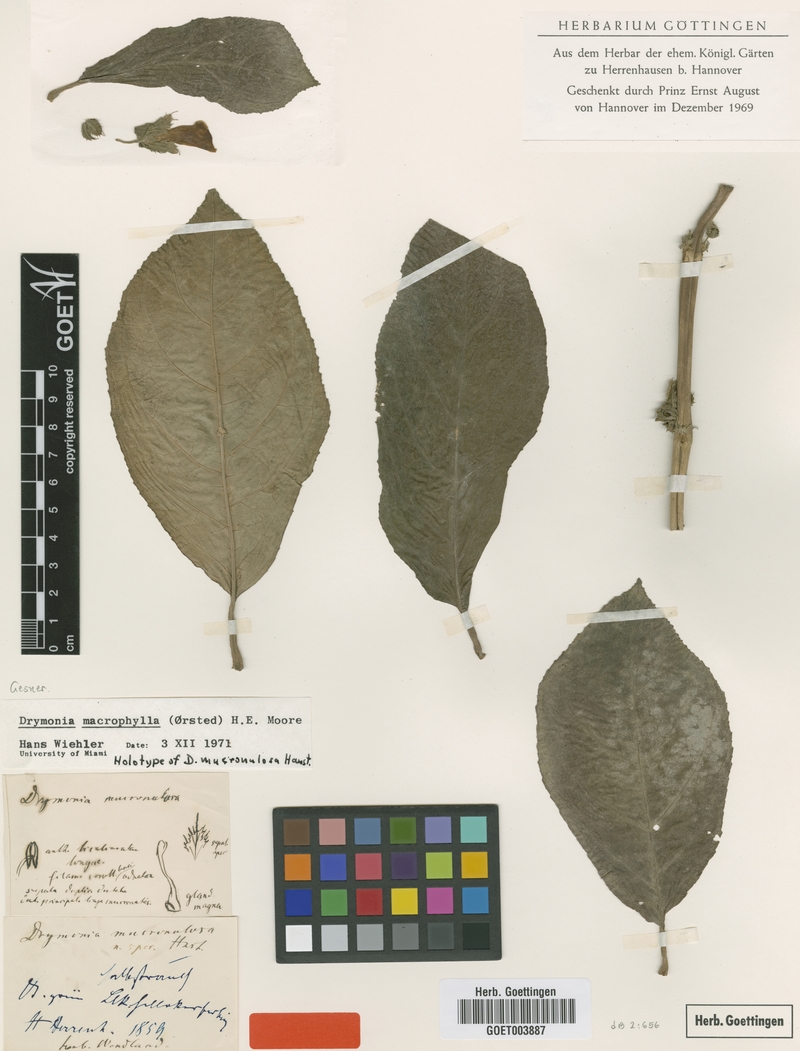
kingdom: Plantae
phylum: Tracheophyta
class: Magnoliopsida
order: Lamiales
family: Gesneriaceae
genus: Drymonia
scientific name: Drymonia macrophylla
